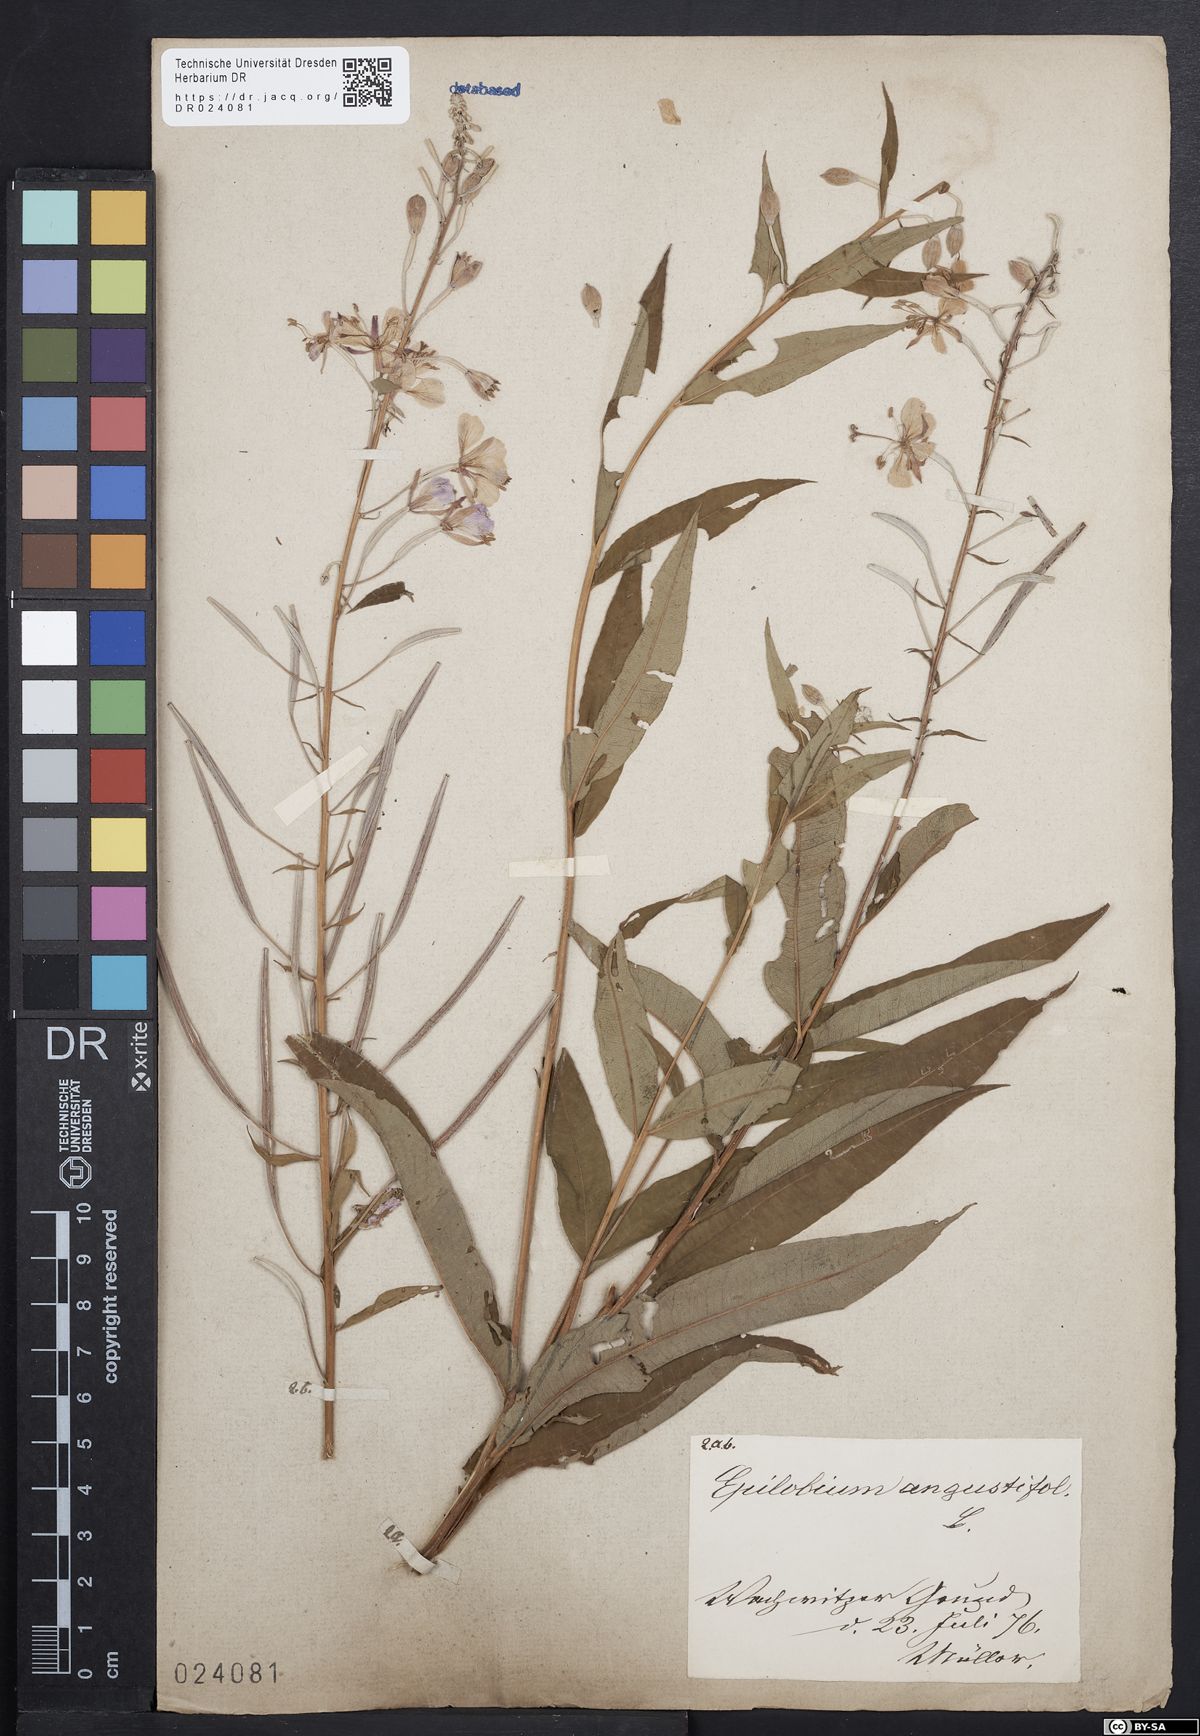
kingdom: Plantae
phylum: Tracheophyta
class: Magnoliopsida
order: Myrtales
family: Onagraceae
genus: Chamaenerion
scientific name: Chamaenerion angustifolium
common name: Fireweed
